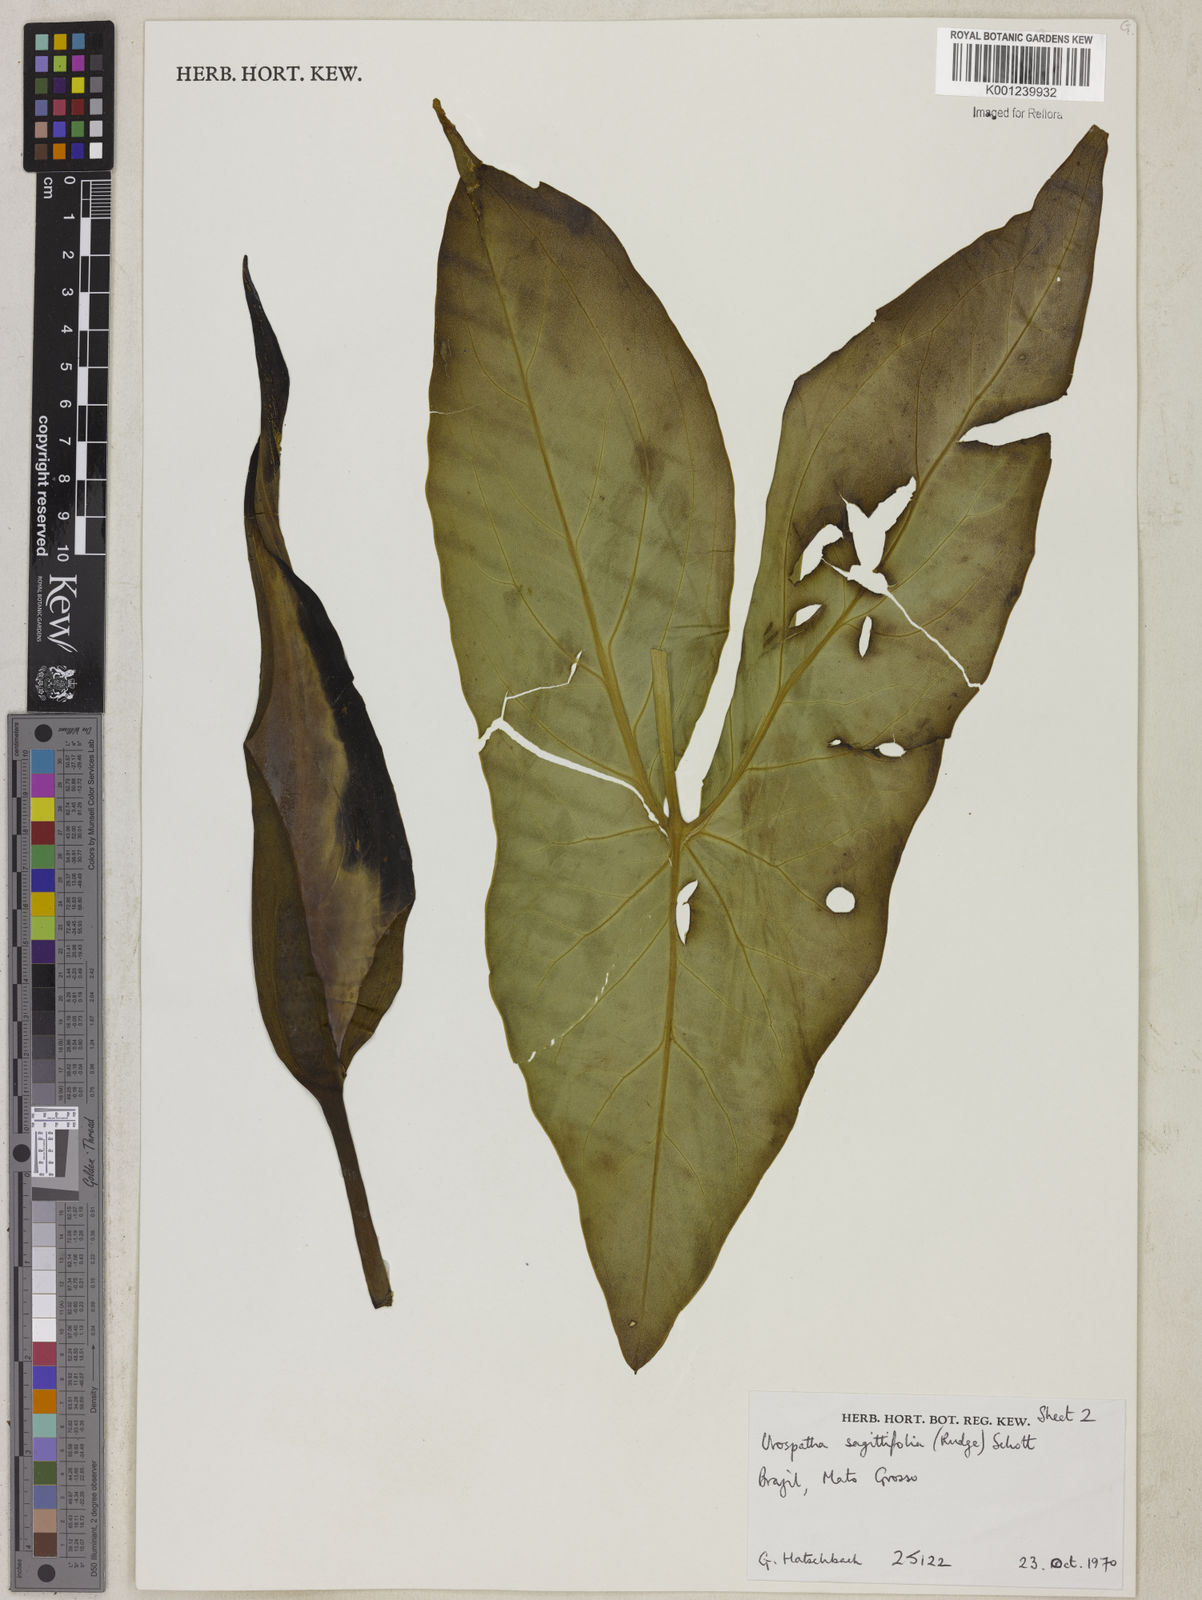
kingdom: Plantae
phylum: Tracheophyta
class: Liliopsida
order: Alismatales
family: Araceae
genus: Urospatha
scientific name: Urospatha sagittifolia
